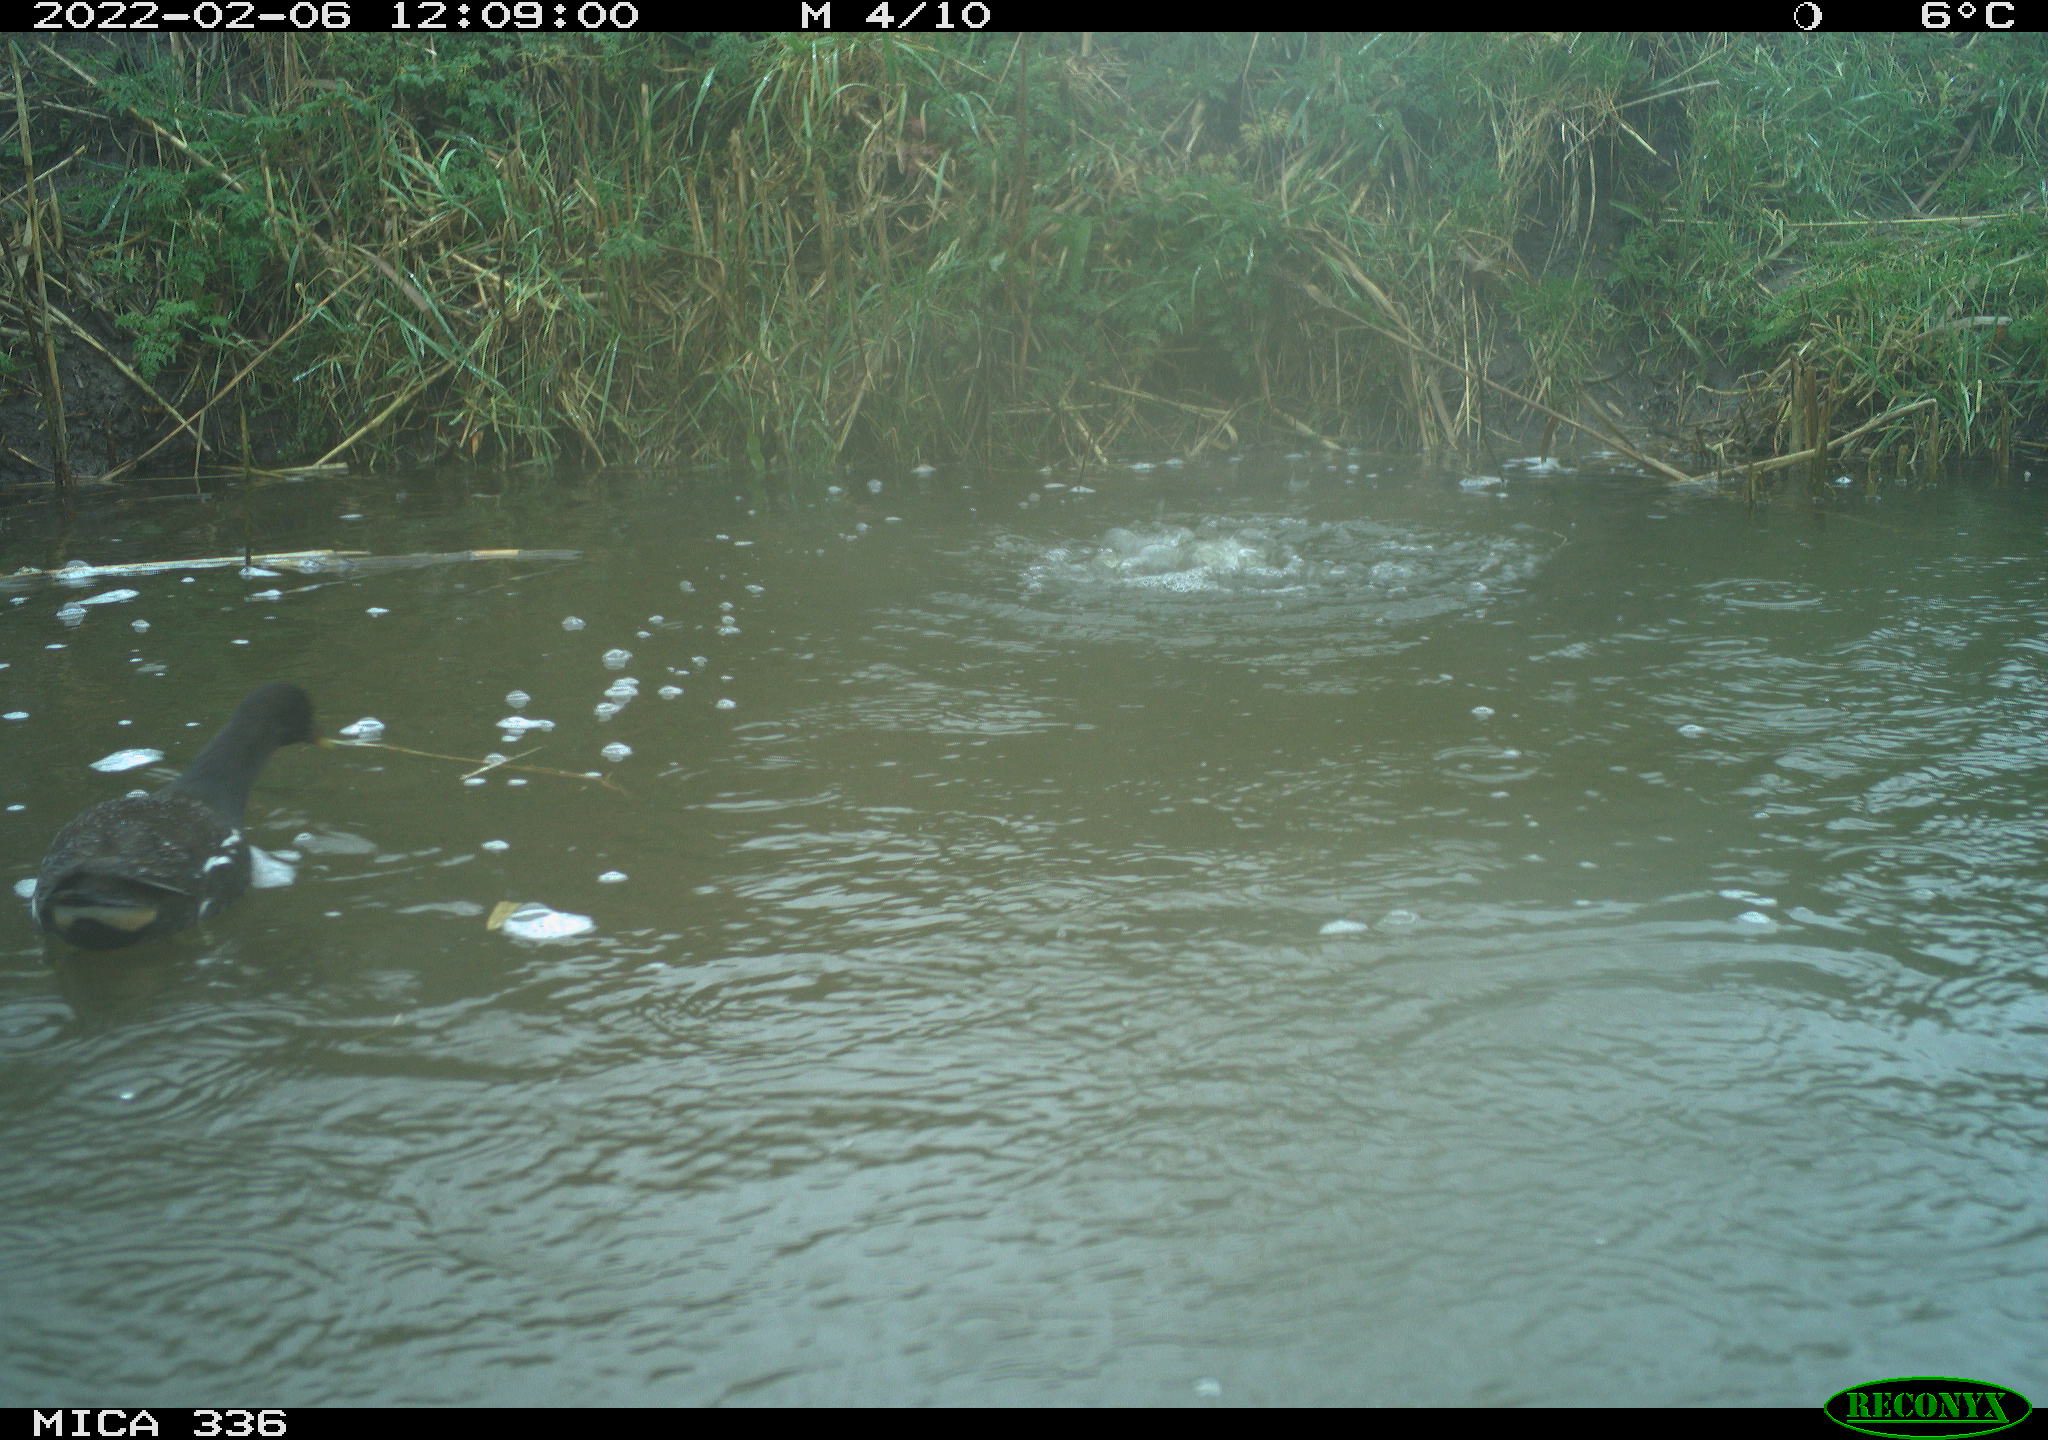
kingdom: Animalia
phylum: Chordata
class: Aves
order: Gruiformes
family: Rallidae
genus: Gallinula
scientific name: Gallinula chloropus
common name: Common moorhen
